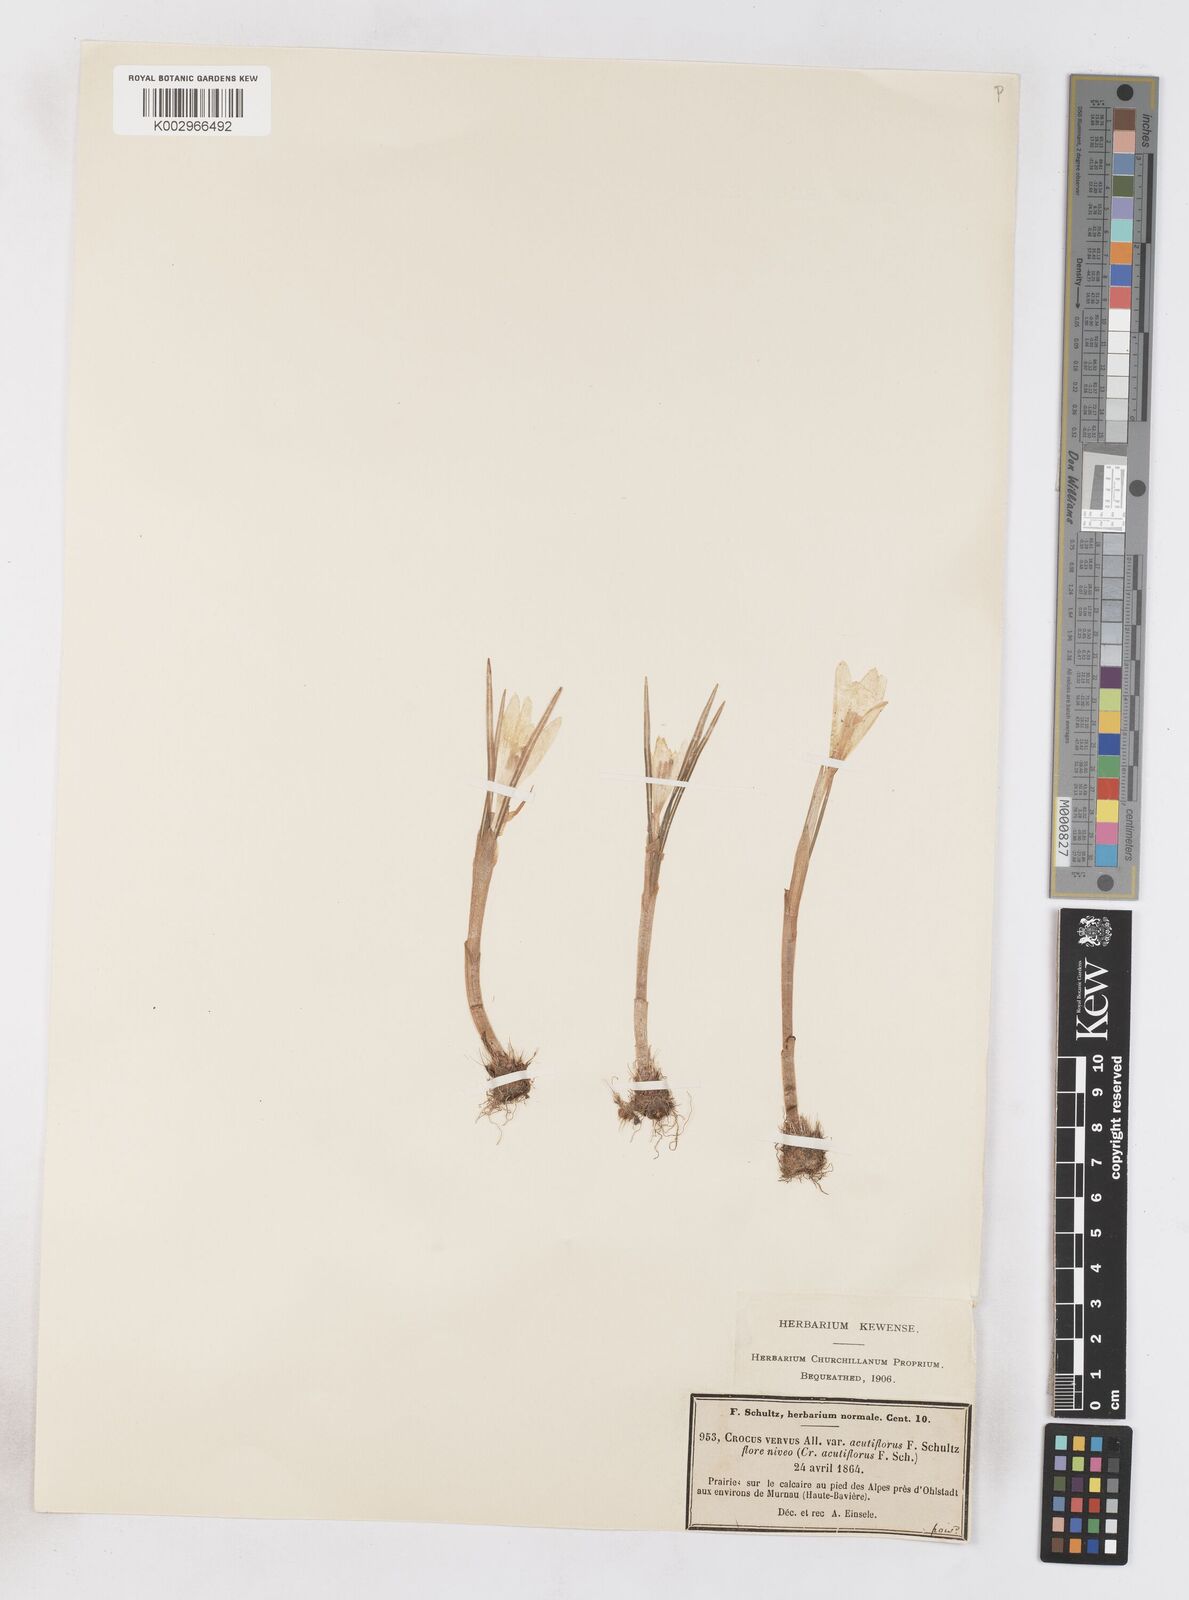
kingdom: Plantae
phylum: Tracheophyta
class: Liliopsida
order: Asparagales
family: Iridaceae
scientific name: Iridaceae
